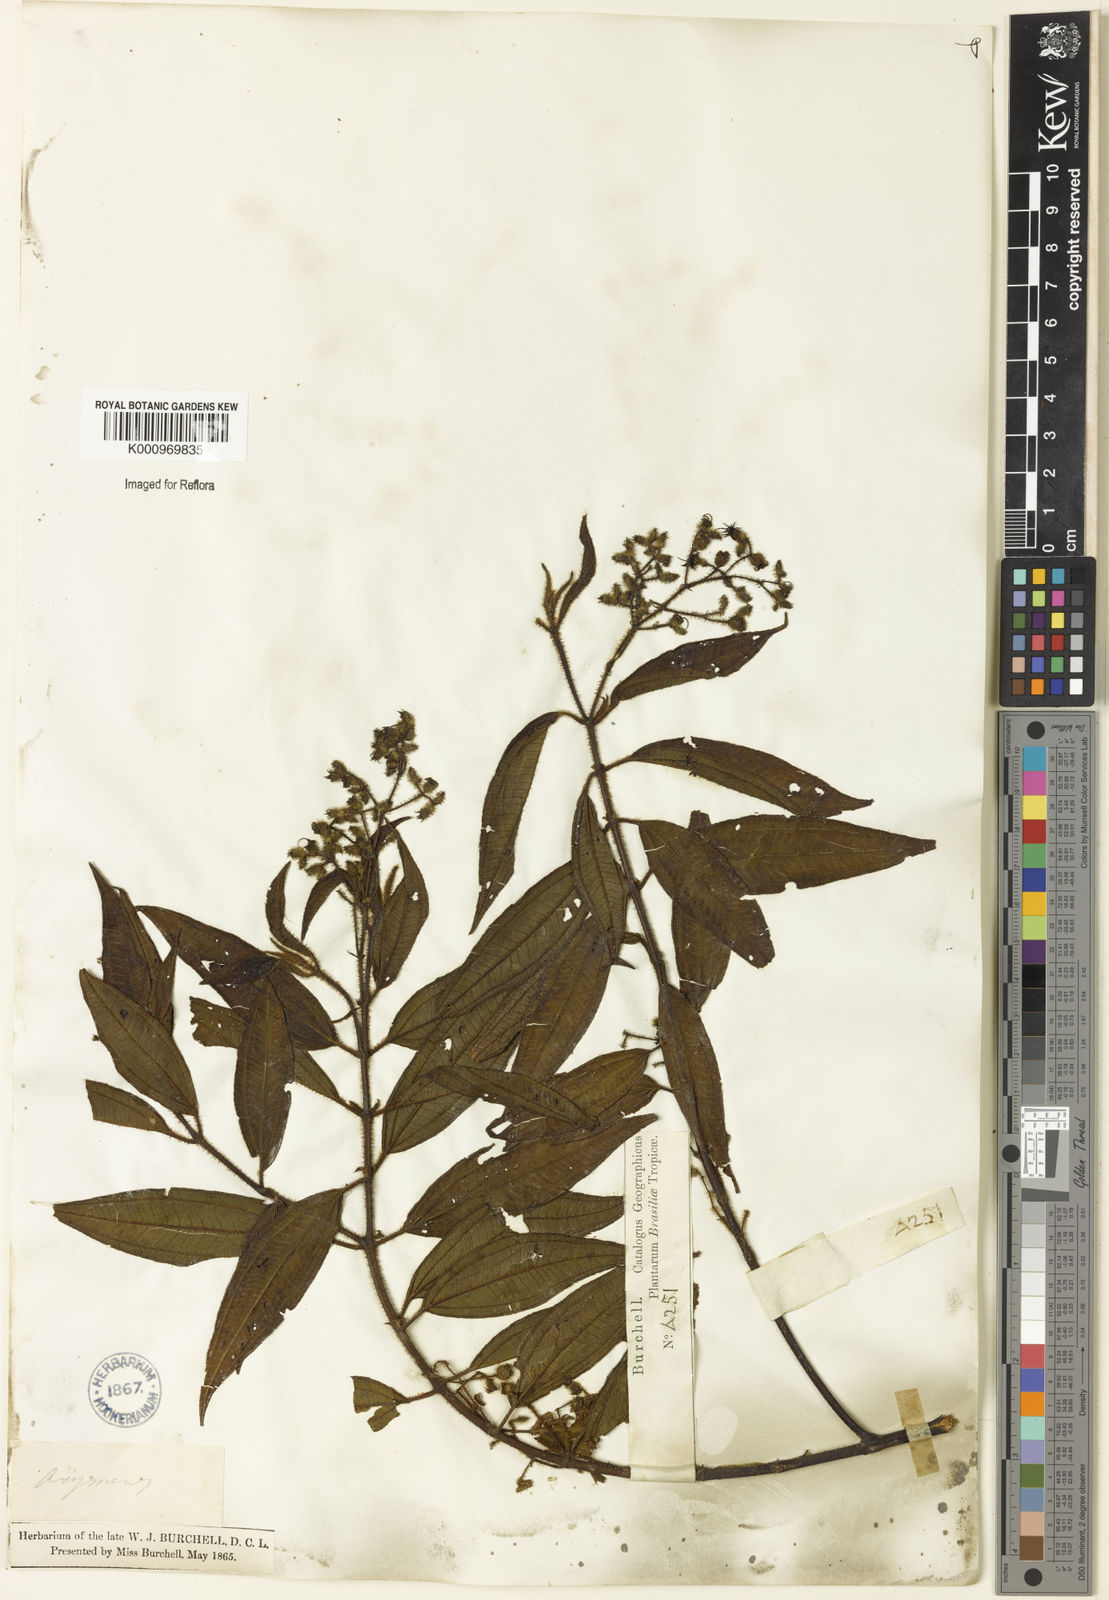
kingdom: Plantae
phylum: Tracheophyta
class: Magnoliopsida
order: Myrtales
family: Melastomataceae
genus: Miconia
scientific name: Miconia
